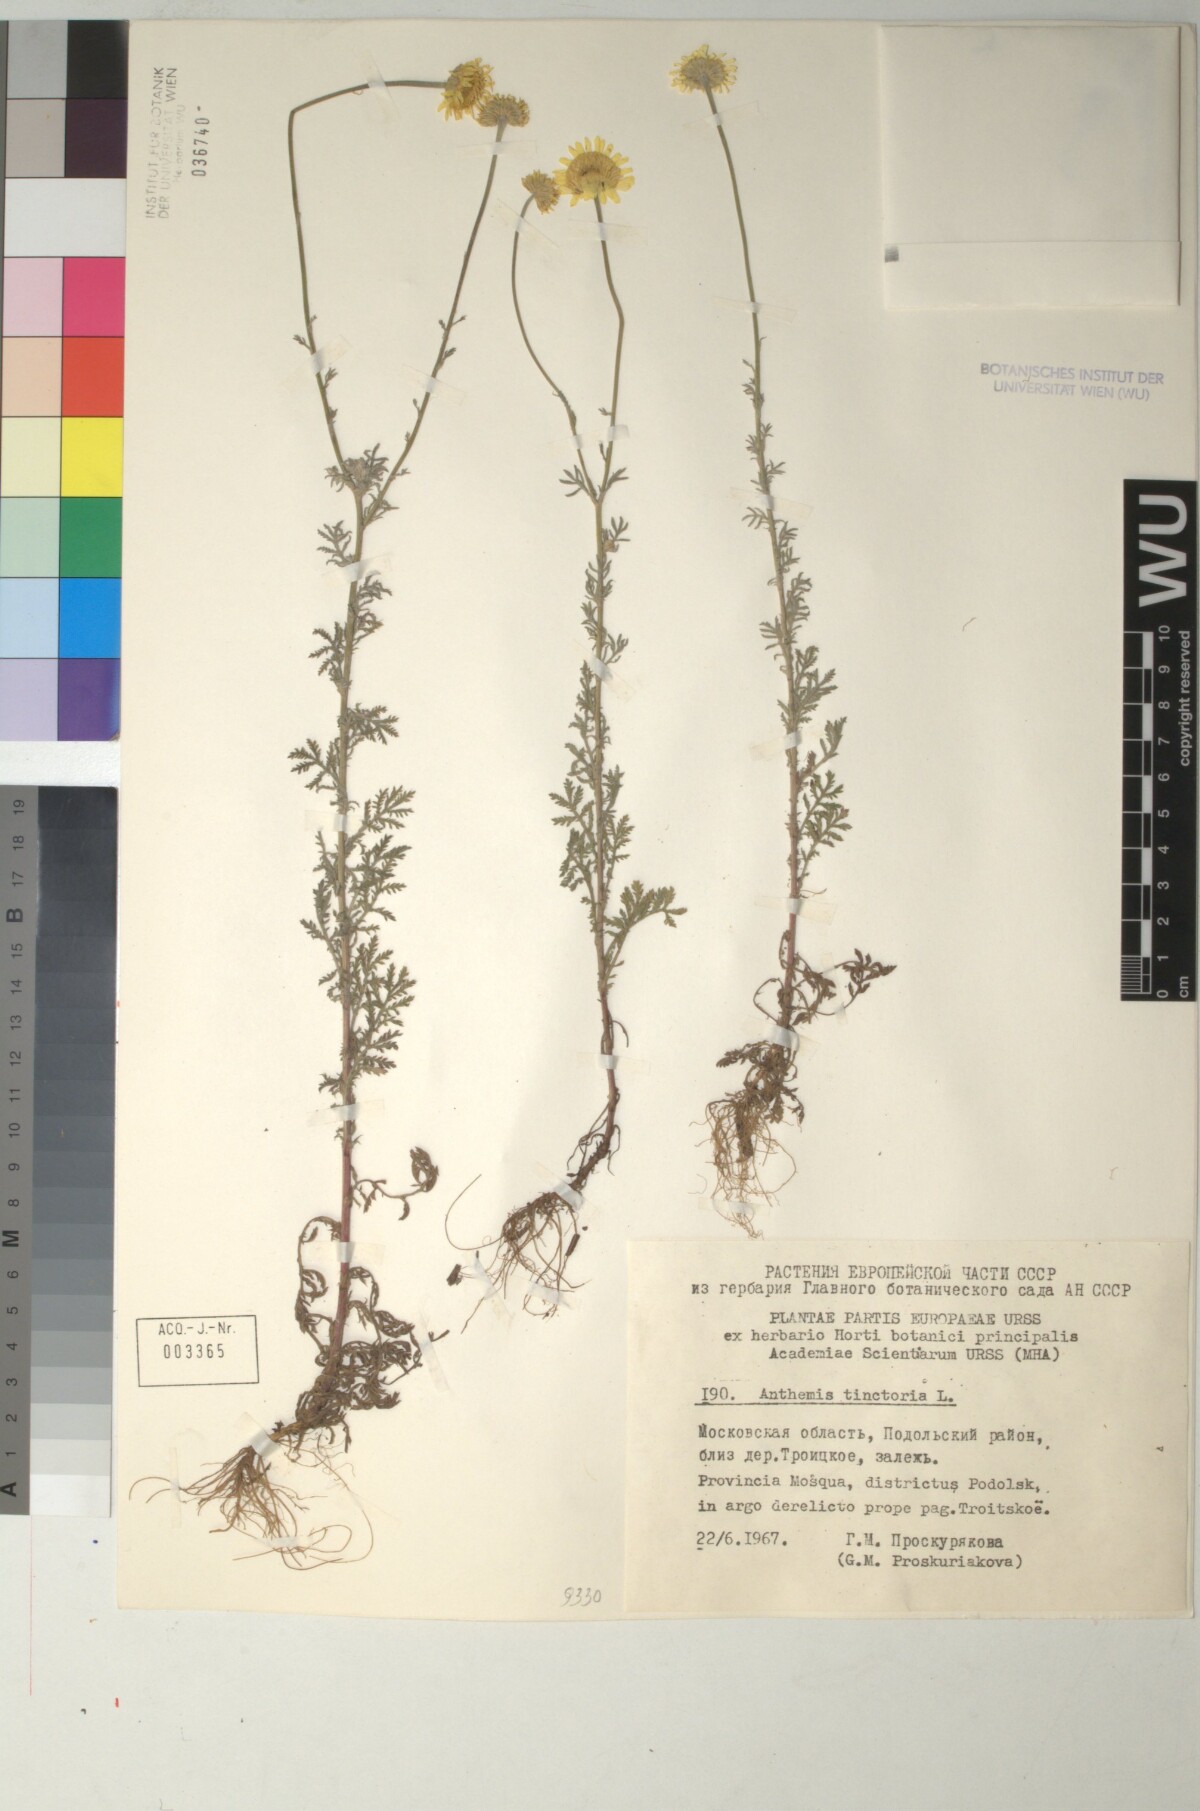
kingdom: Plantae
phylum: Tracheophyta
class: Magnoliopsida
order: Asterales
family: Asteraceae
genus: Cota
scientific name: Cota tinctoria
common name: Golden chamomile
